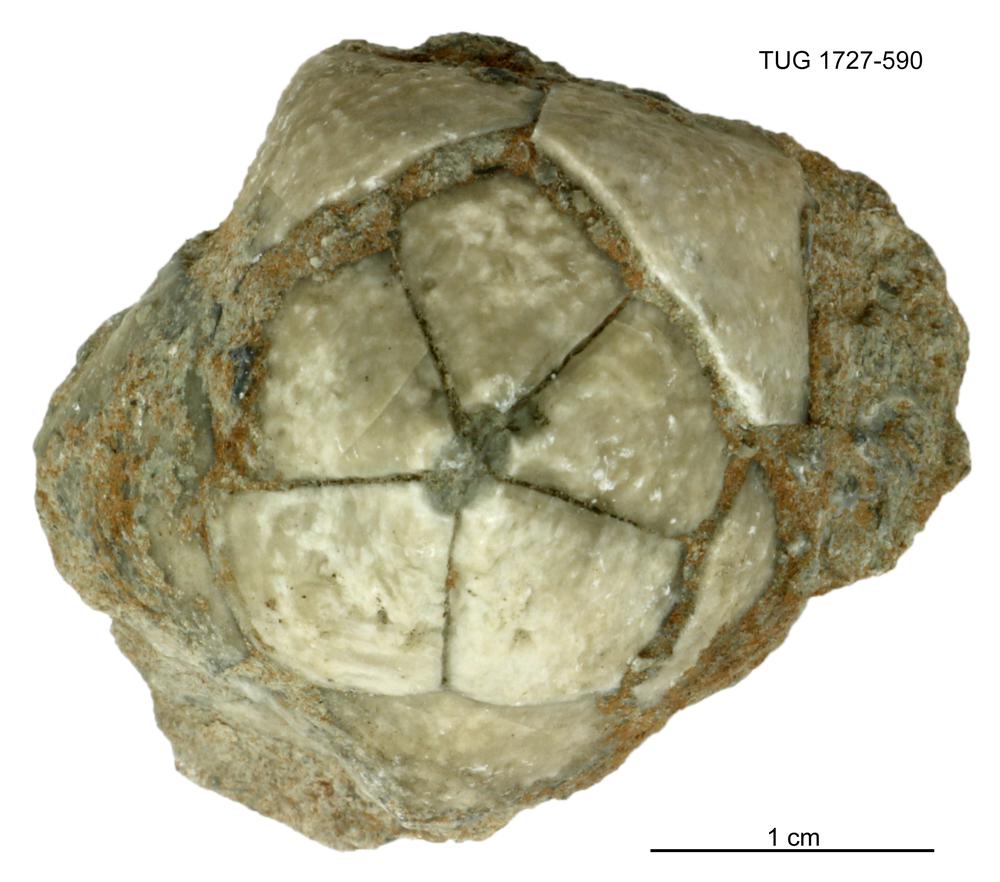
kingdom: Animalia
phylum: Echinodermata
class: Crinoidea
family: Hybocrinidae
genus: Hoplocrinus
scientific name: Hoplocrinus
